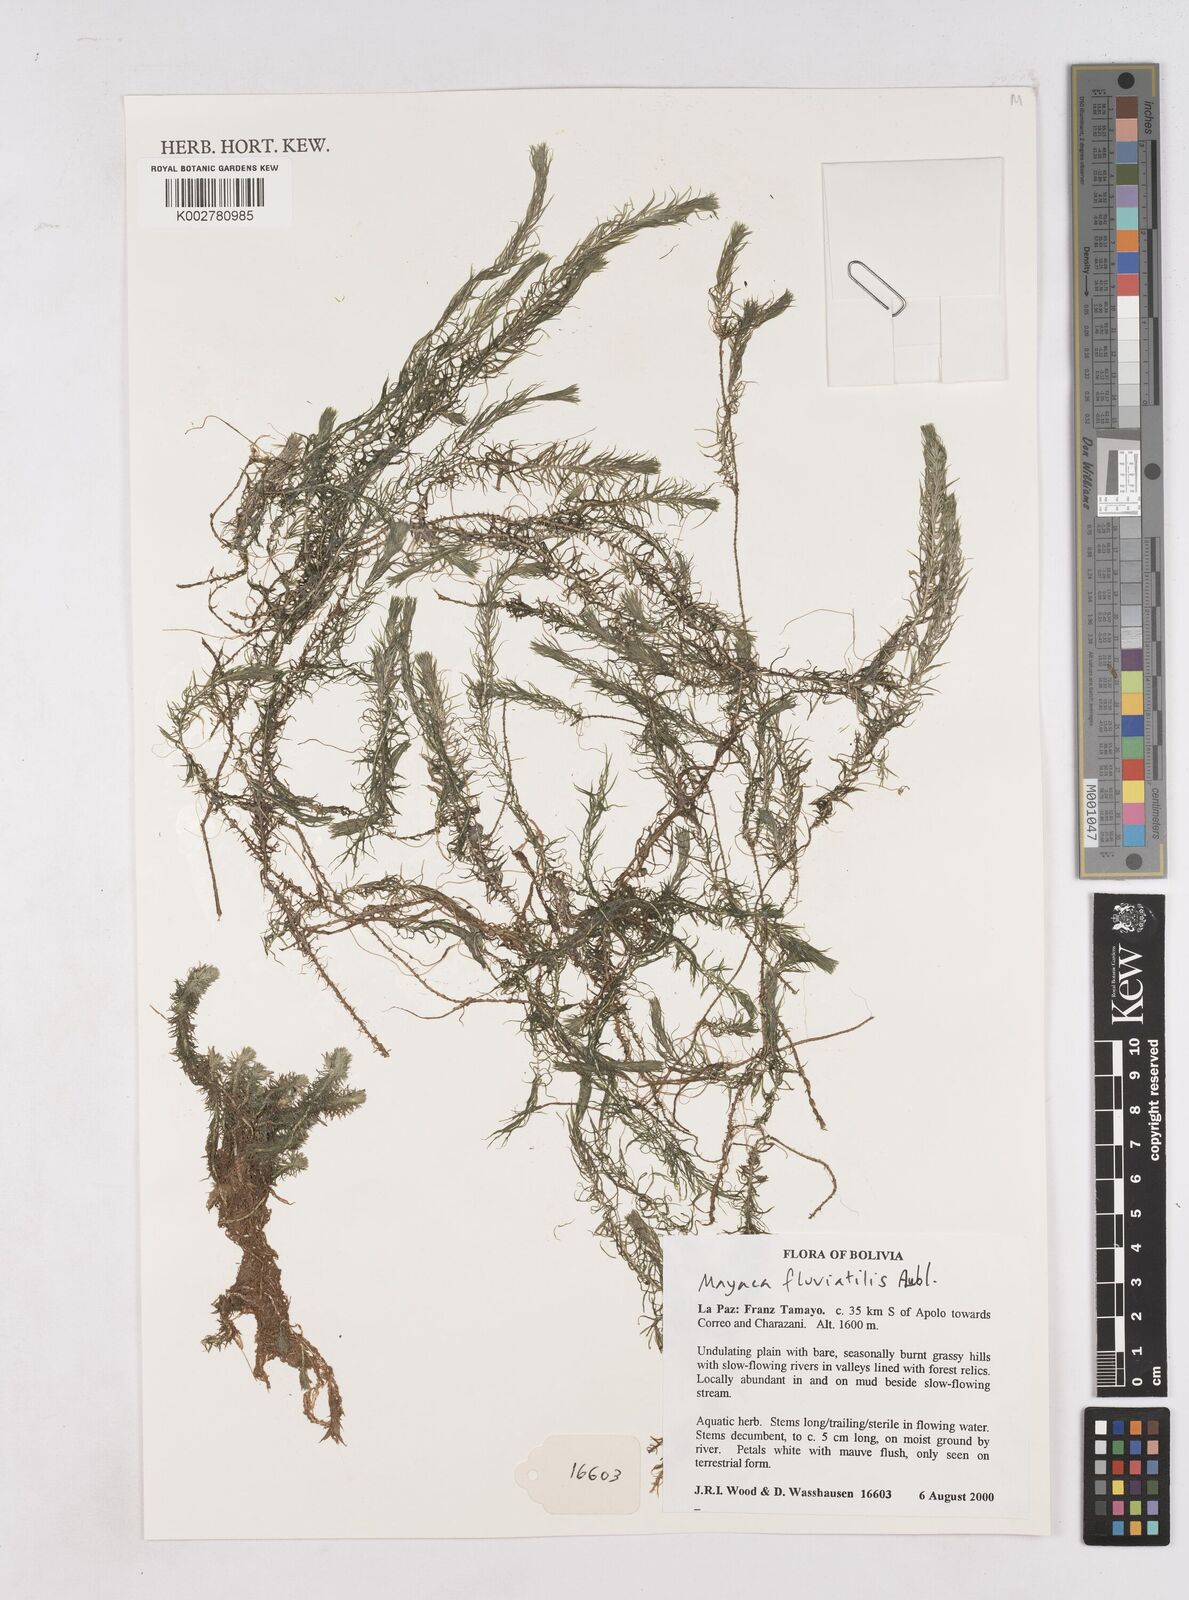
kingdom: Plantae
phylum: Tracheophyta
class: Liliopsida
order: Poales
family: Mayacaceae
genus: Mayaca
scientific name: Mayaca fluviatilis
